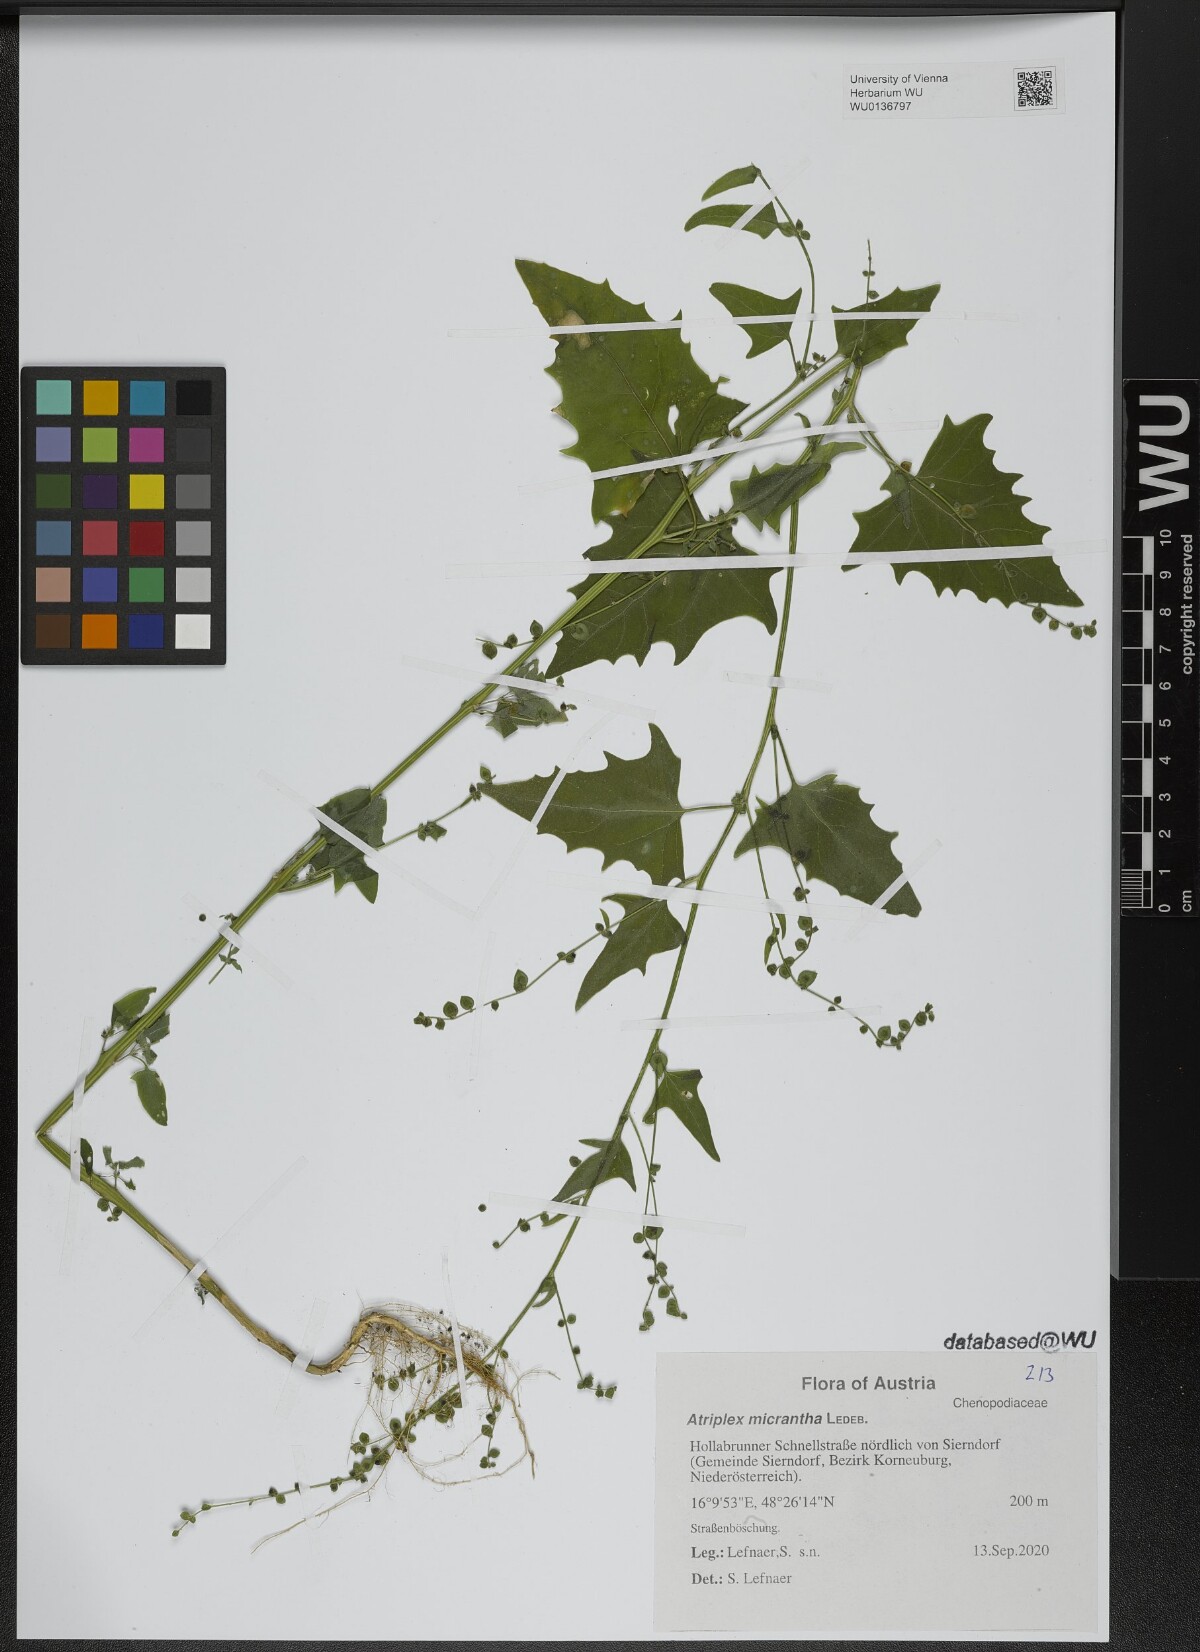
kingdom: Plantae
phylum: Tracheophyta
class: Magnoliopsida
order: Caryophyllales
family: Amaranthaceae
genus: Atriplex
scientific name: Atriplex micrantha
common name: Twoscale saltbush
